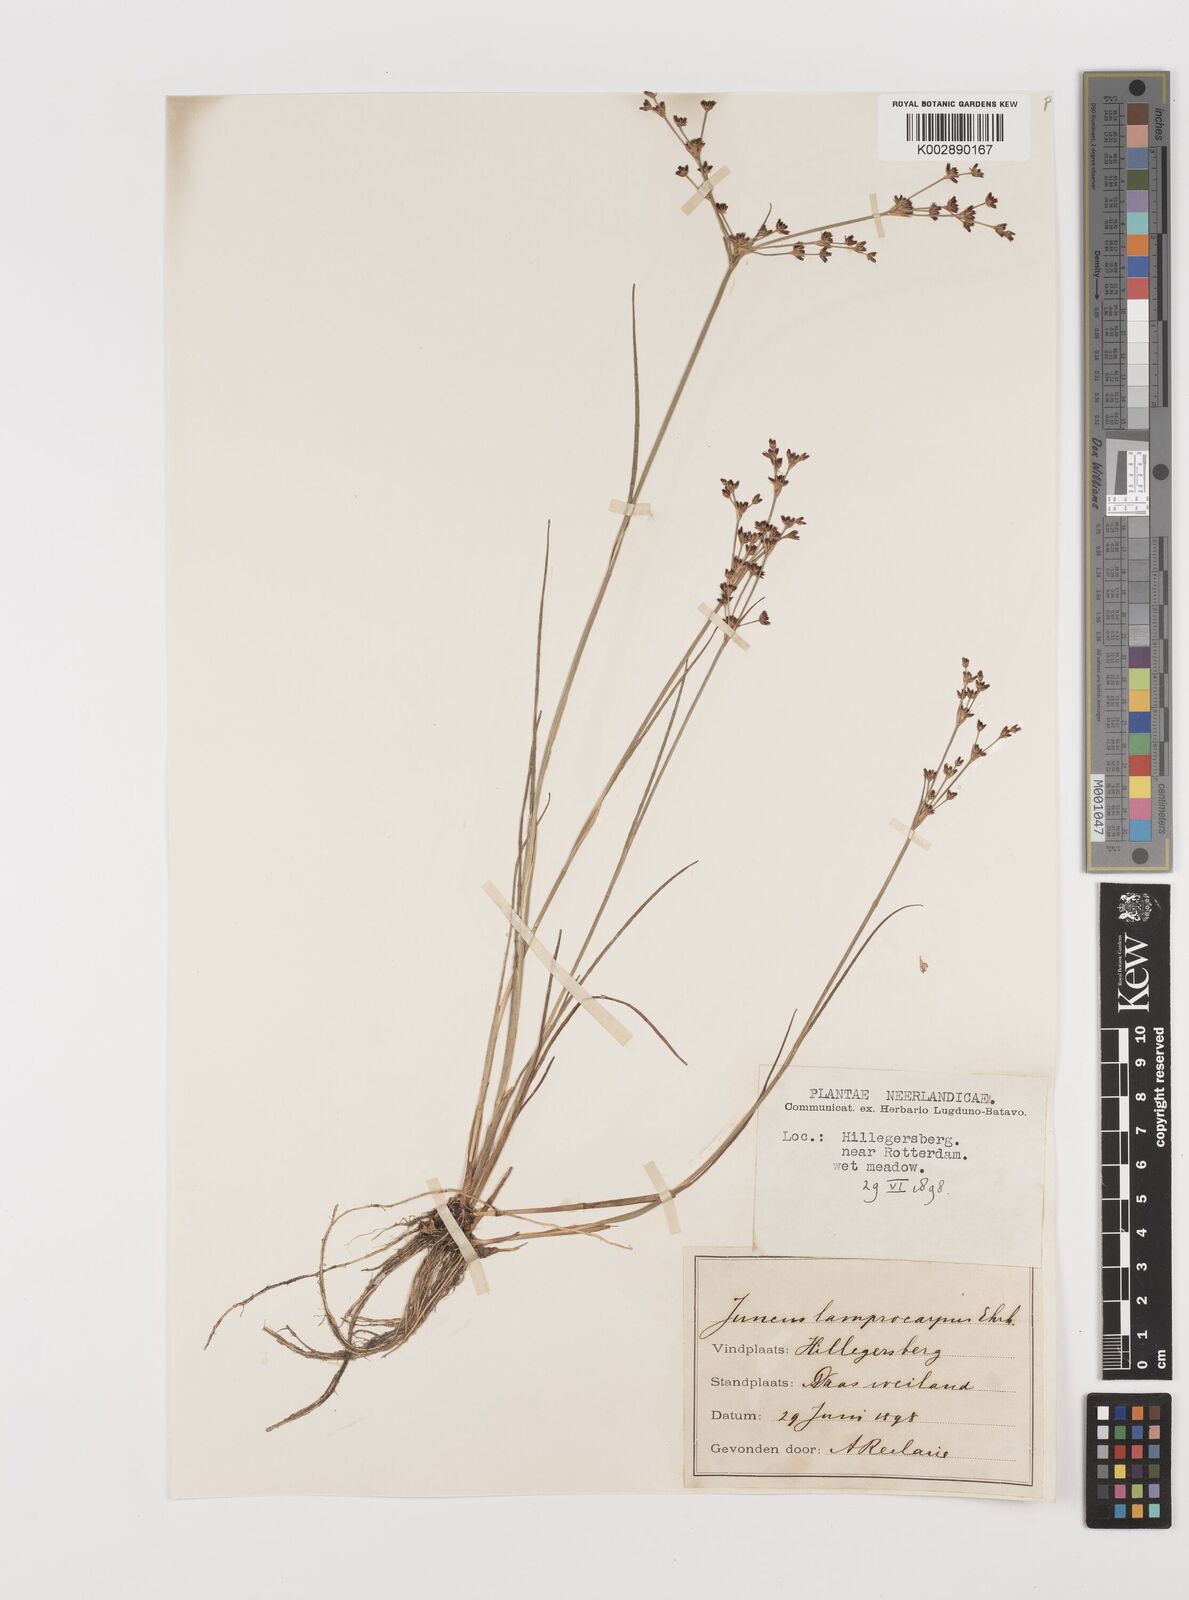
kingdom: Plantae
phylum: Tracheophyta
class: Liliopsida
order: Poales
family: Juncaceae
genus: Juncus
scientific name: Juncus articulatus
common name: Jointed rush
